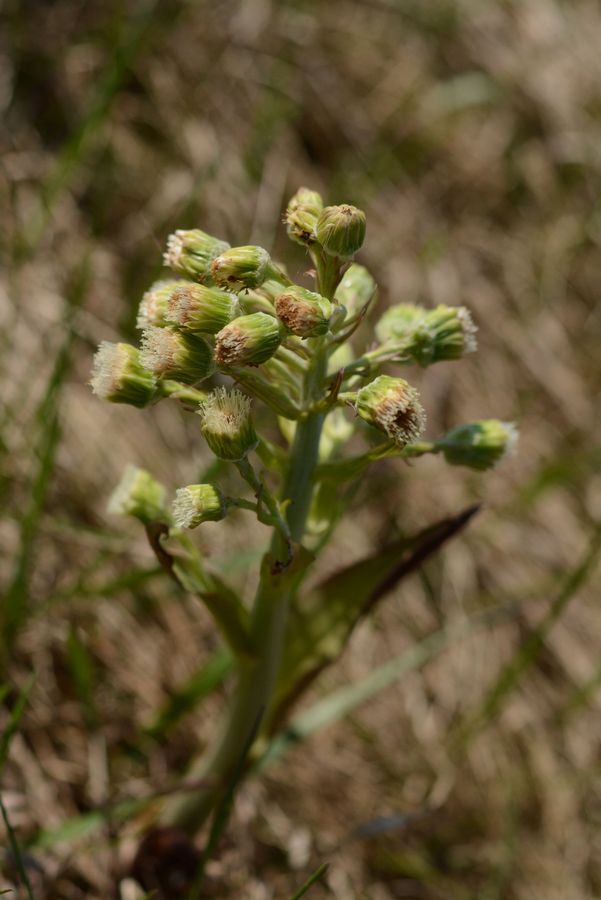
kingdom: Plantae
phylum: Tracheophyta
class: Magnoliopsida
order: Asterales
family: Asteraceae
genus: Petasites
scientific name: Petasites spurius
